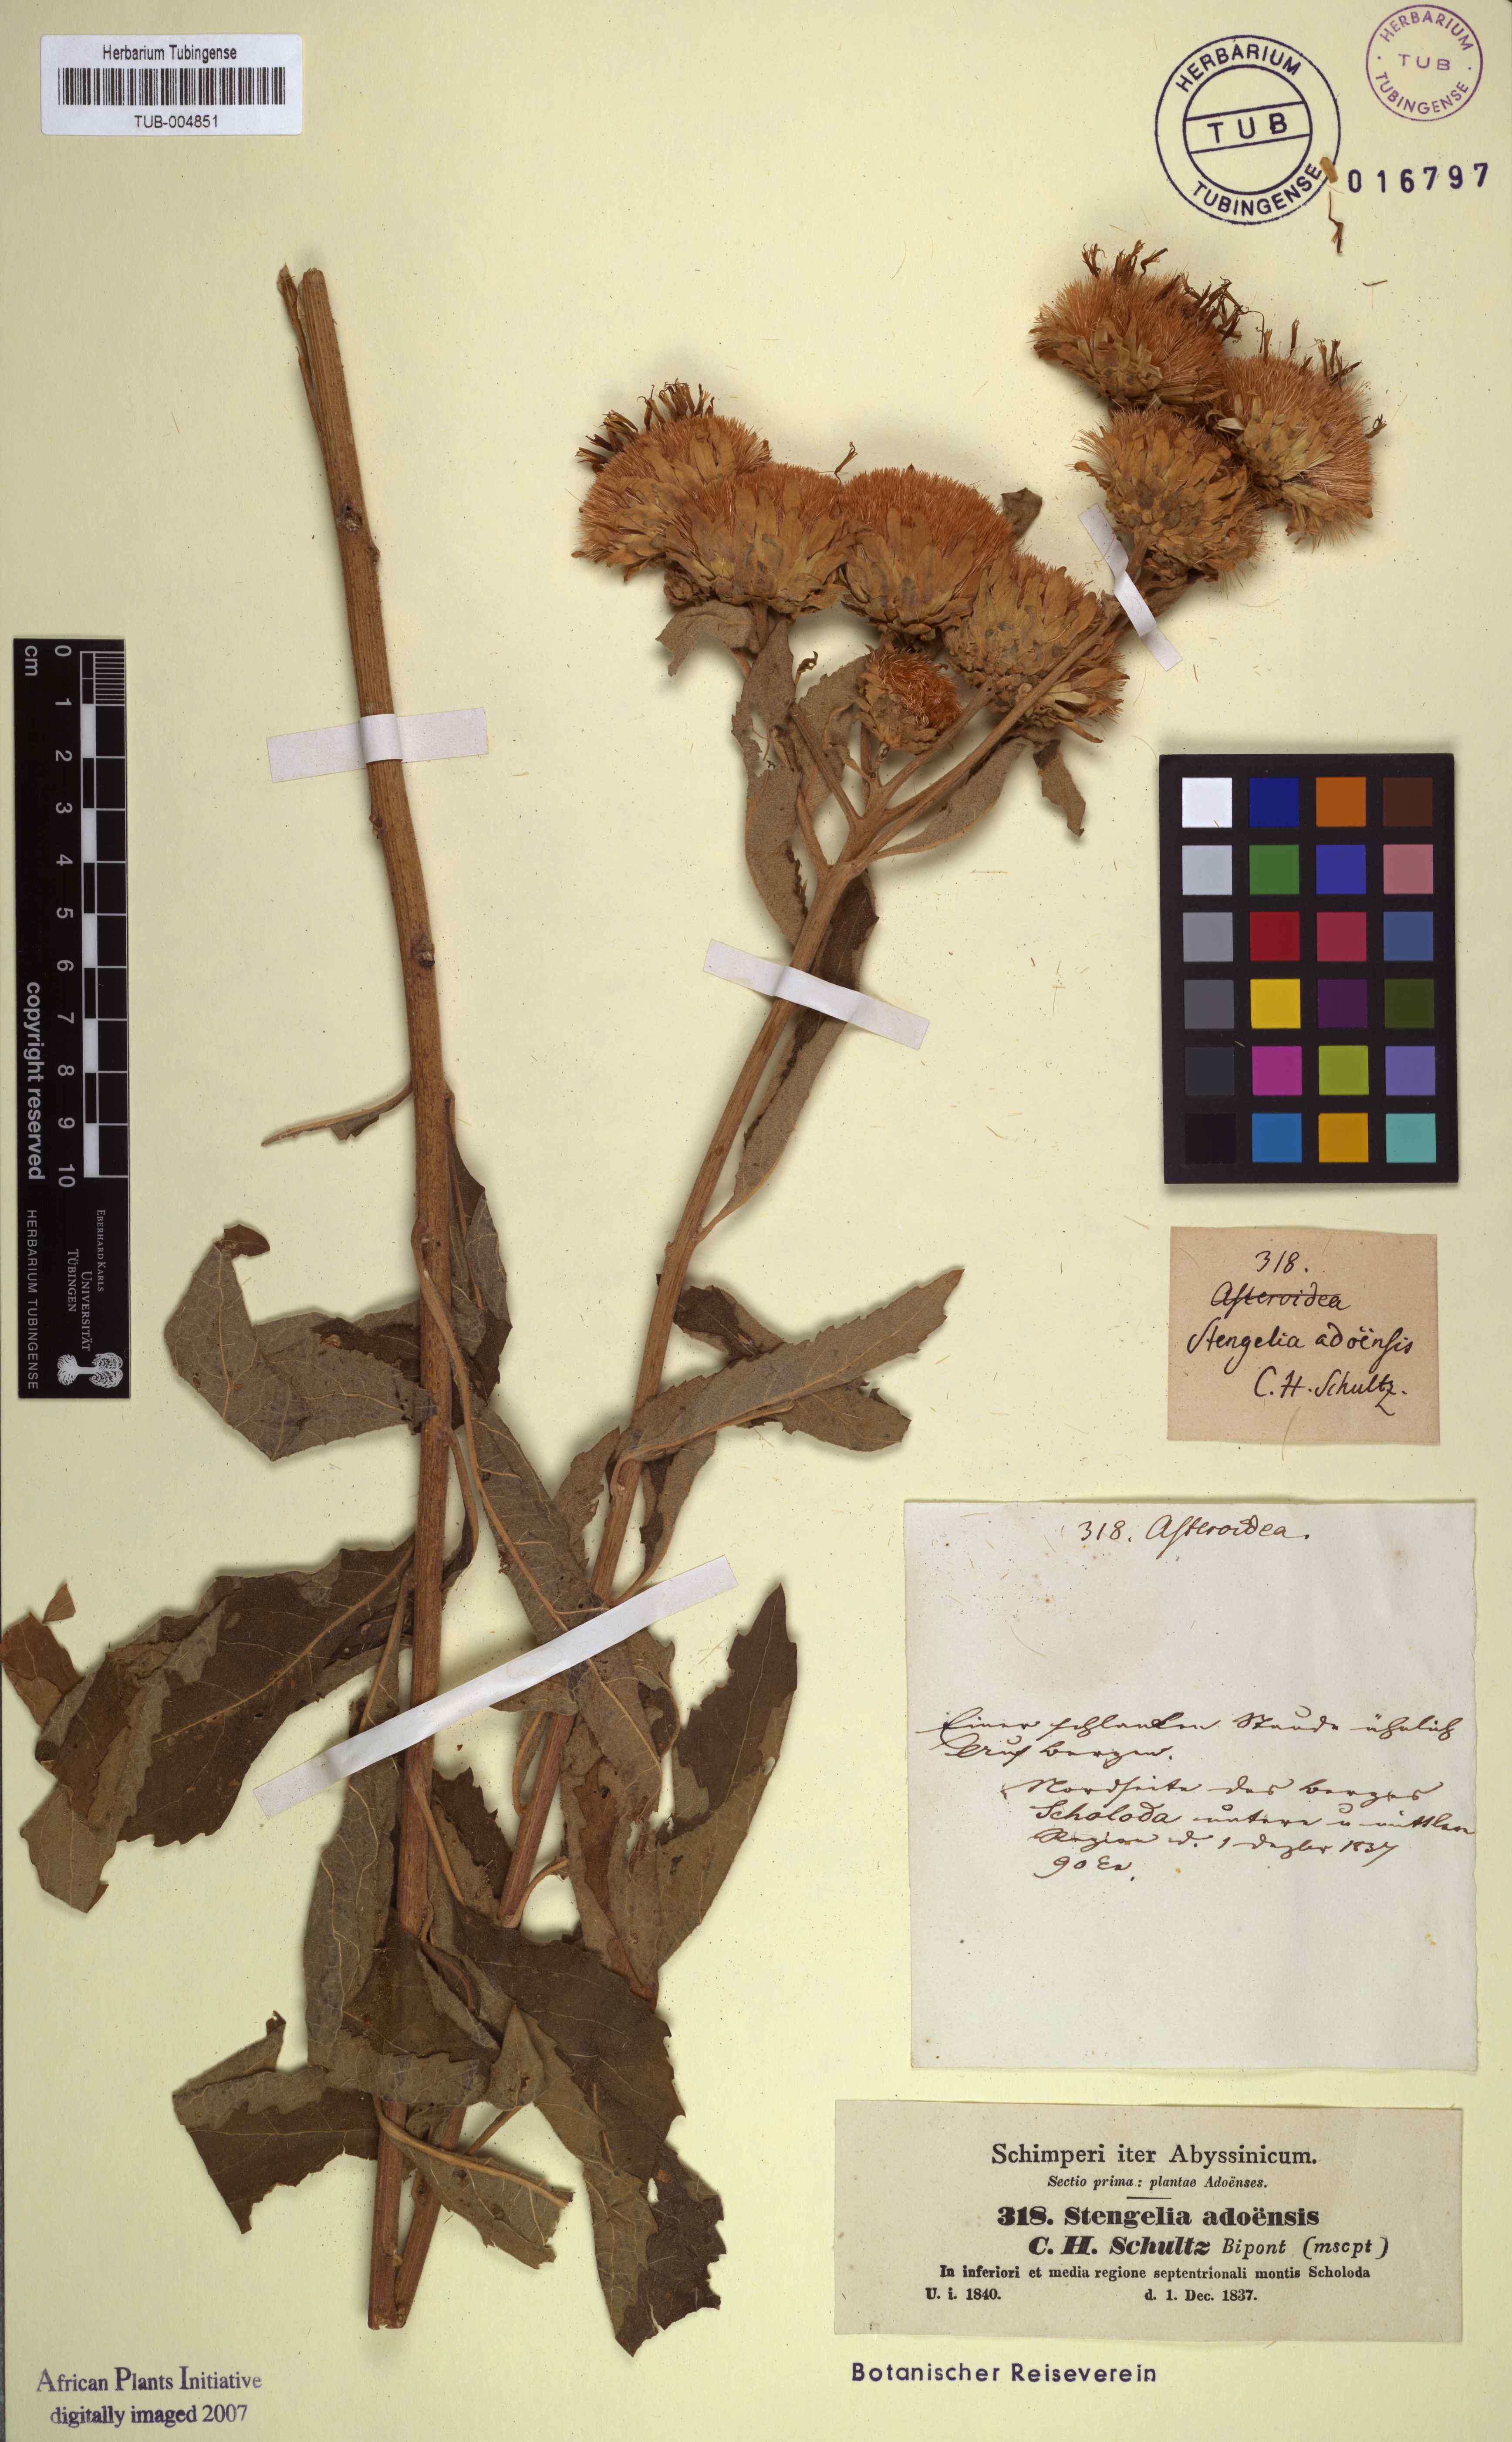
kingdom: Plantae
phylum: Tracheophyta
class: Magnoliopsida
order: Asterales
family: Asteraceae
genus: Baccharoides
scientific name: Baccharoides adoensis
